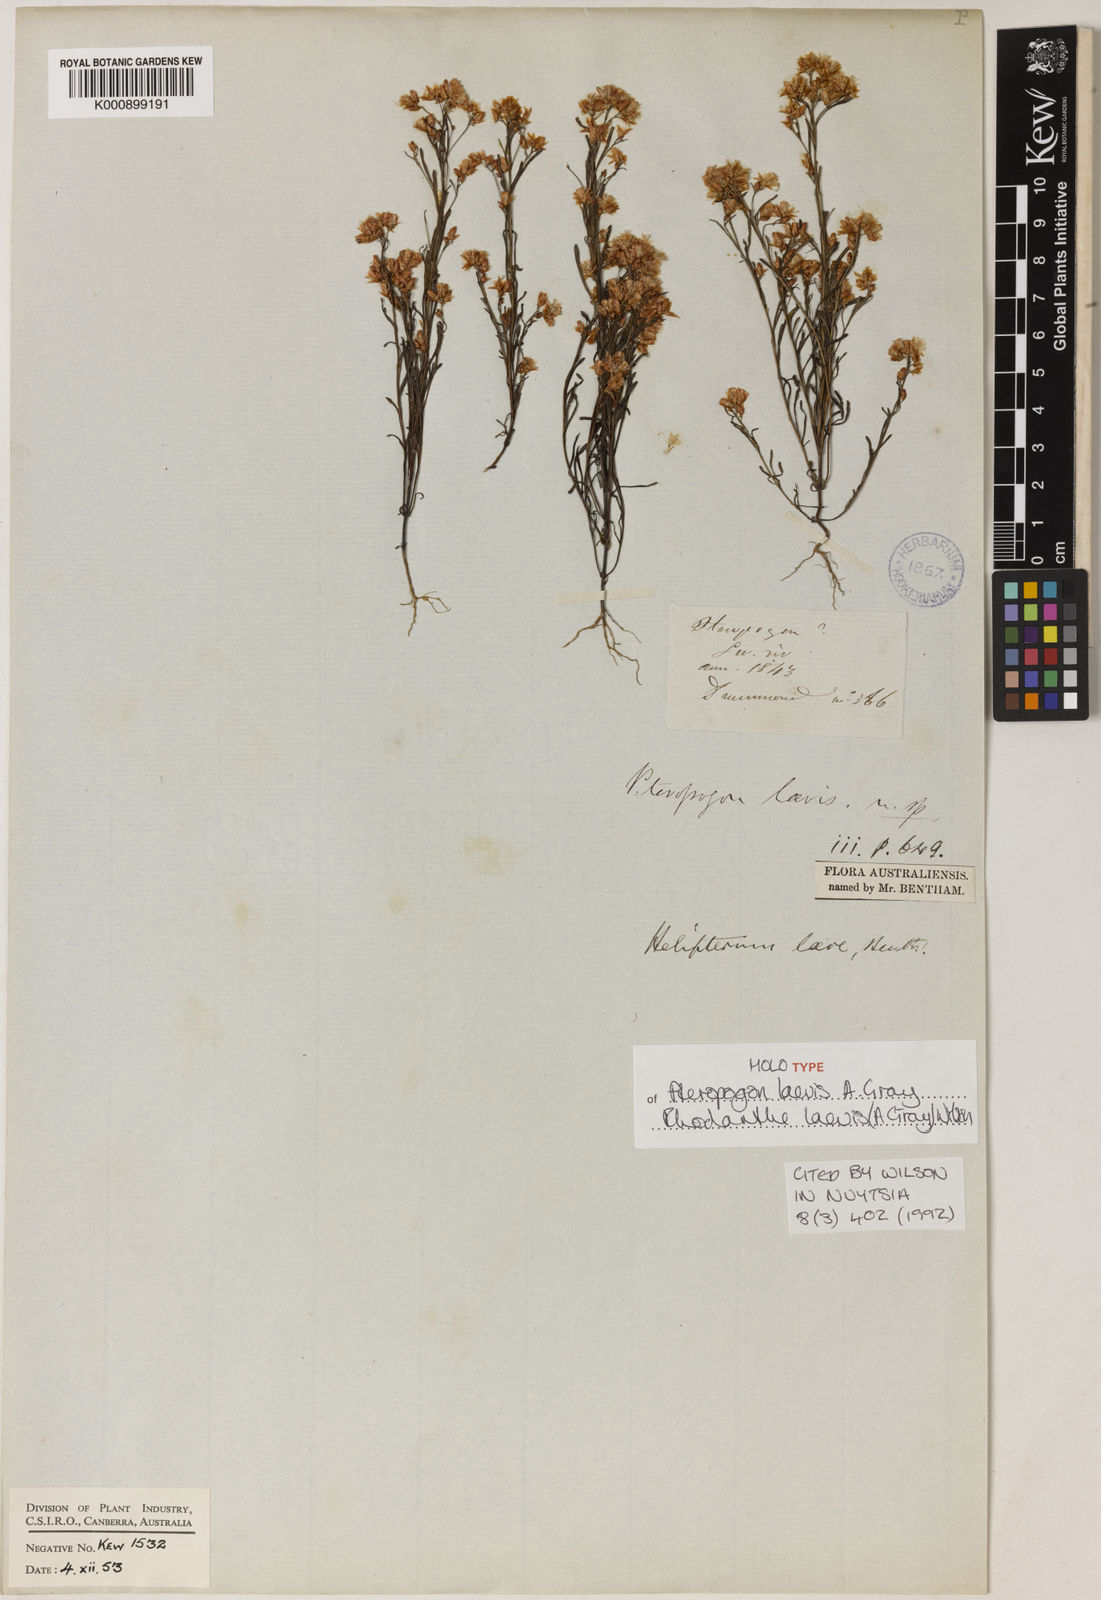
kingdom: Plantae
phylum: Tracheophyta
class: Magnoliopsida
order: Asterales
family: Asteraceae
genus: Rhodanthe
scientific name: Rhodanthe laevis
